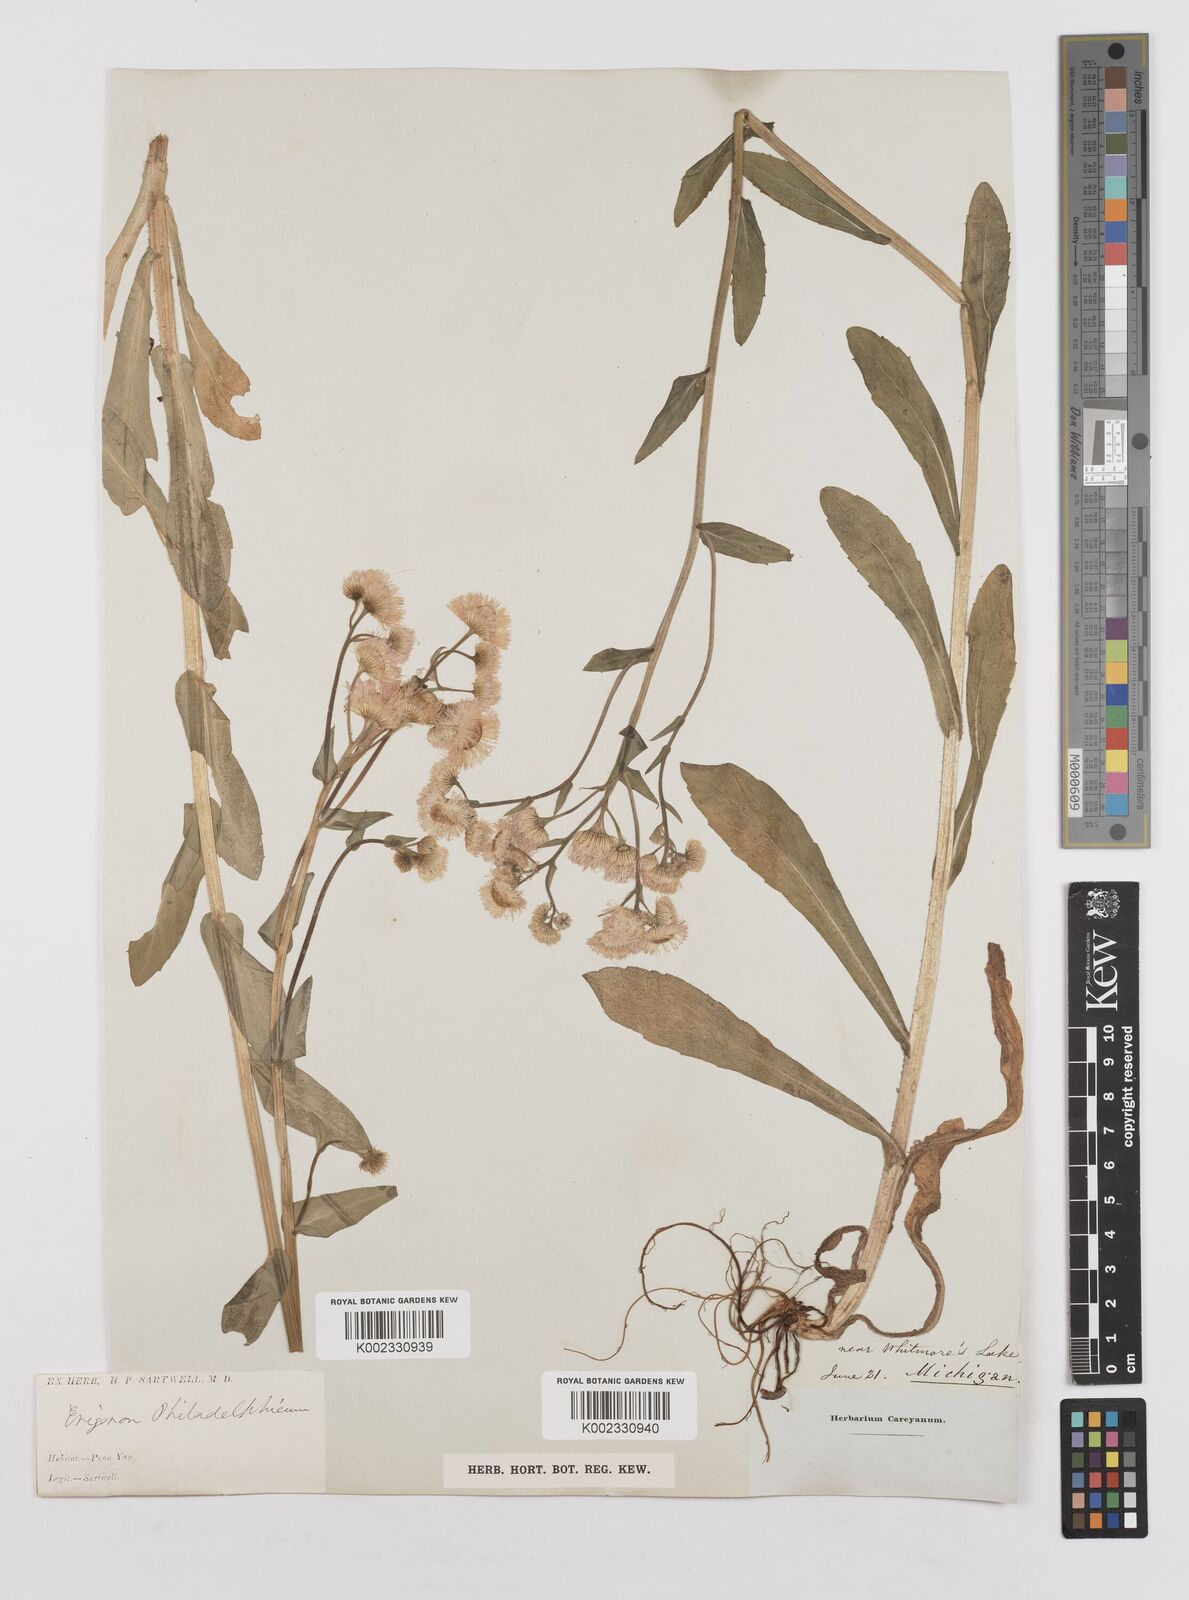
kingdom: Plantae
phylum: Tracheophyta
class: Magnoliopsida
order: Asterales
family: Asteraceae
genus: Erigeron
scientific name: Erigeron philadelphicus
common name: Robin's-plantain
